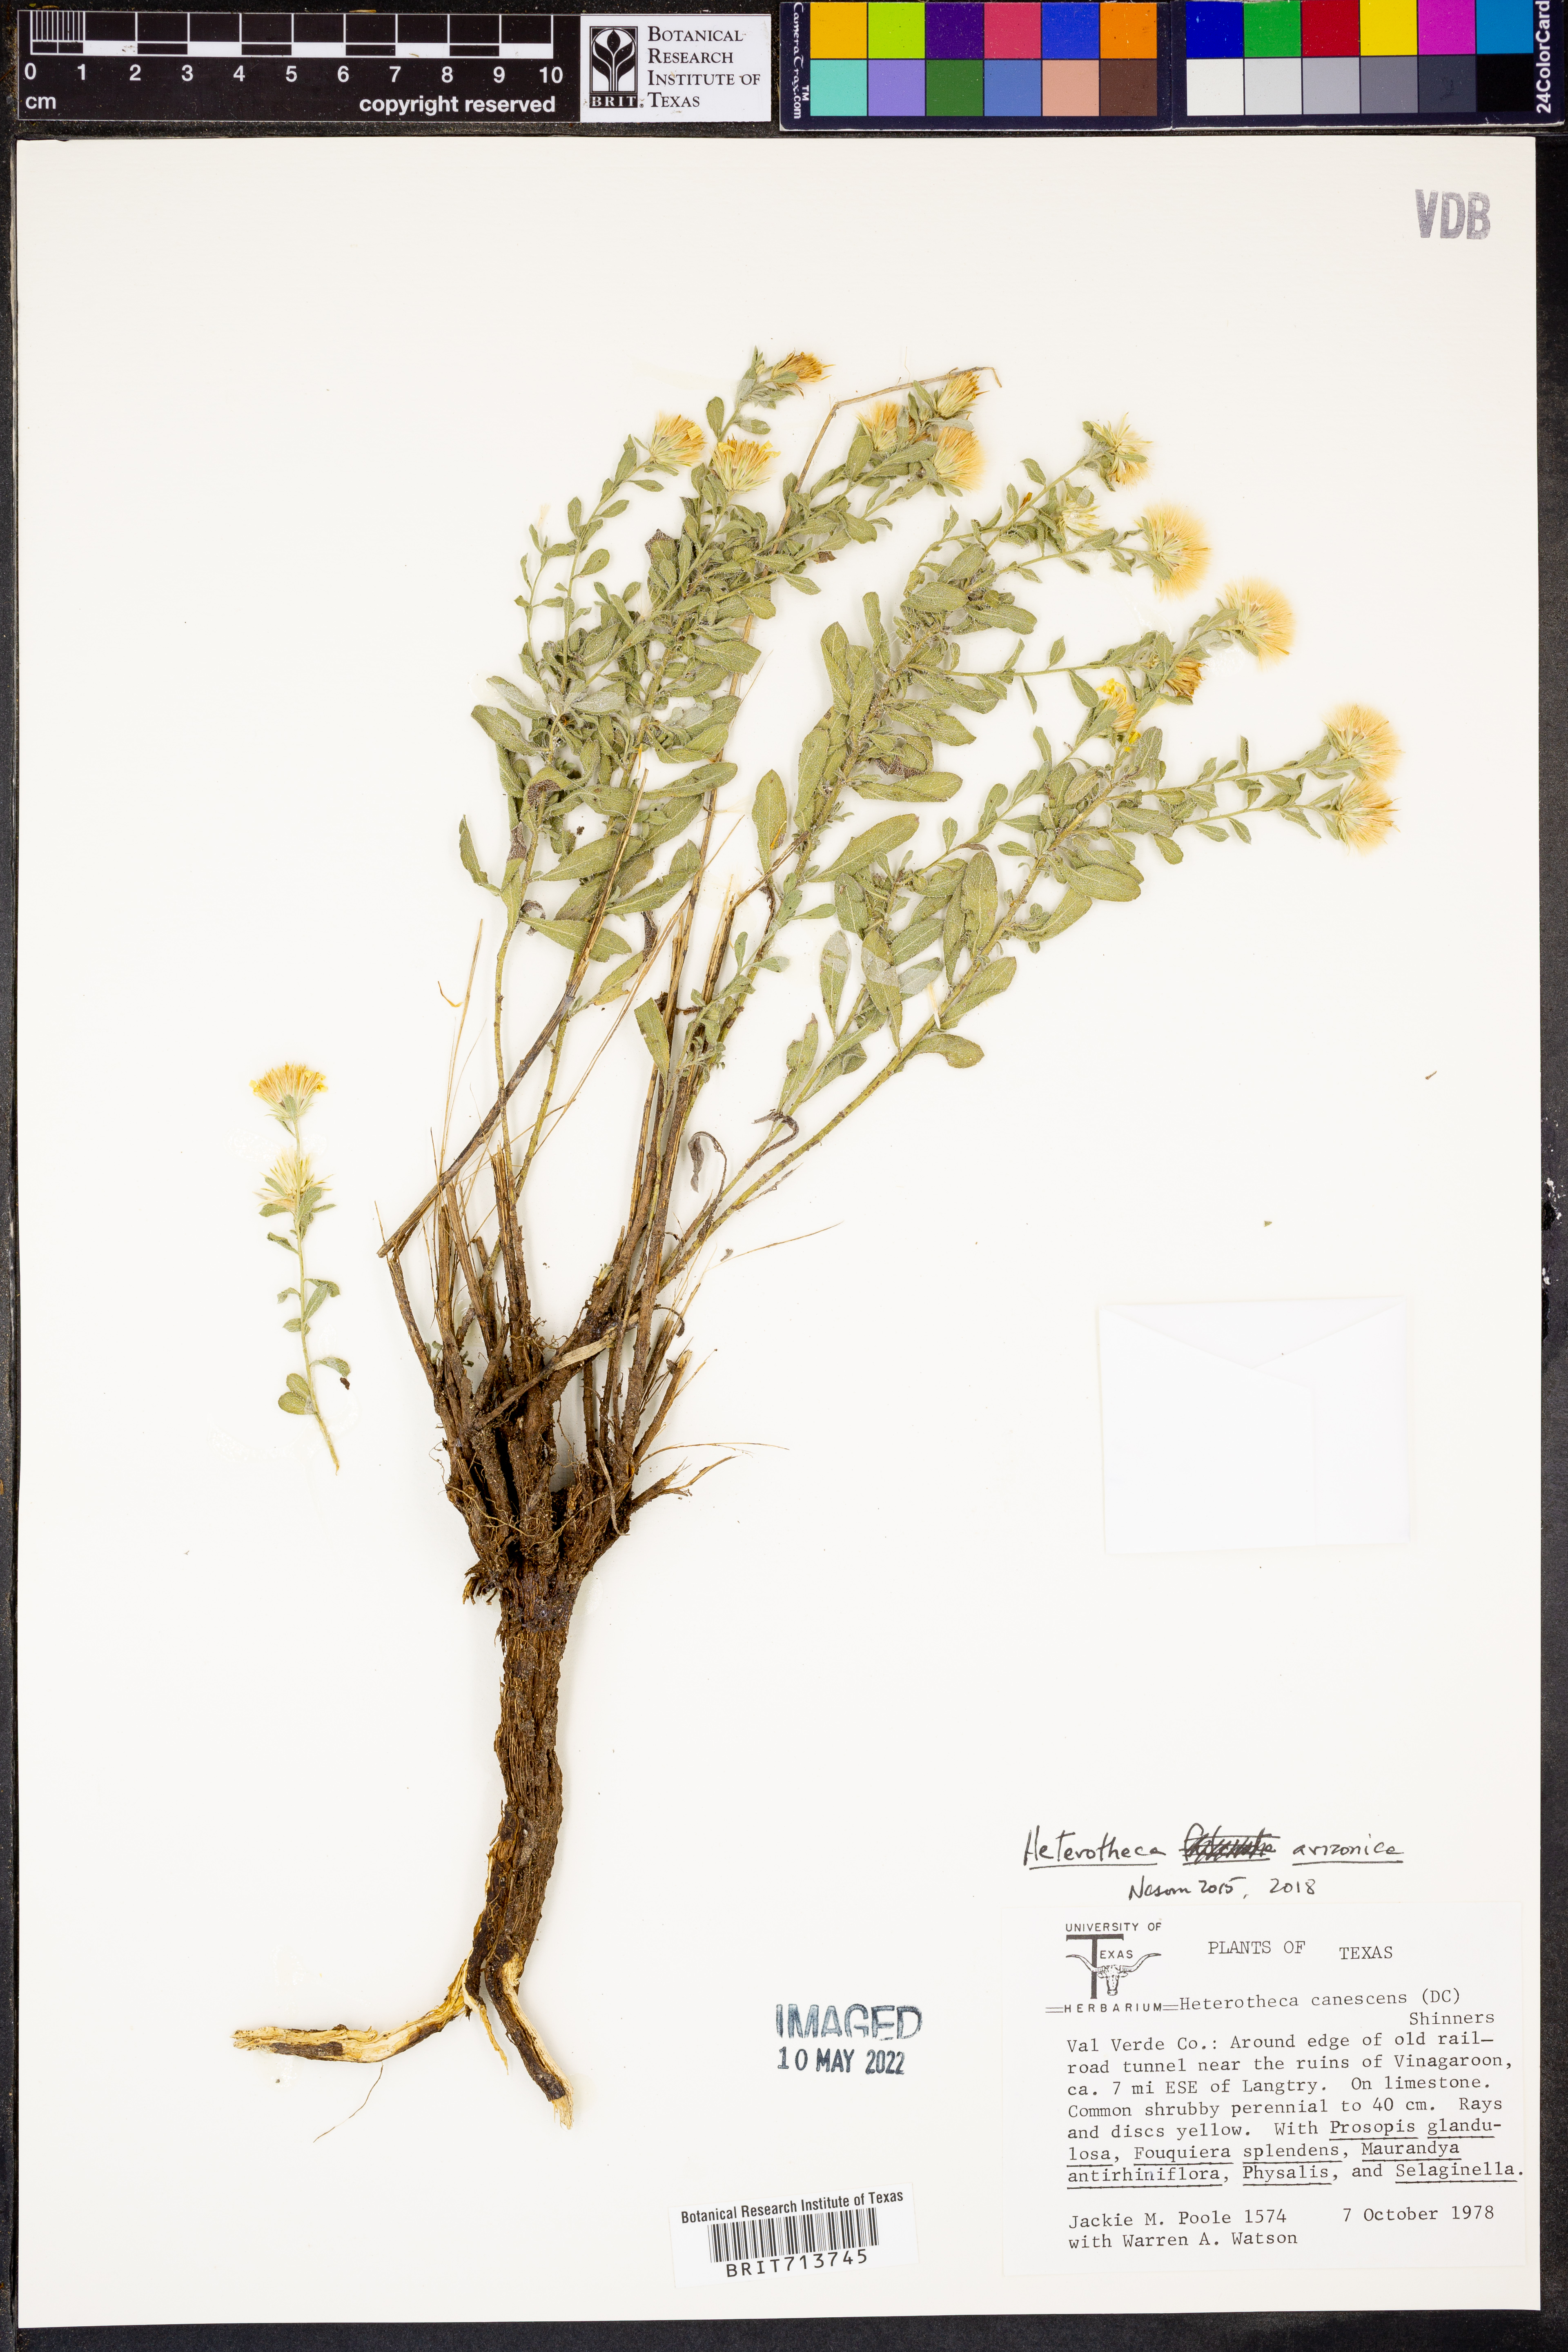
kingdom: Plantae
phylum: Tracheophyta
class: Magnoliopsida
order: Asterales
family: Asteraceae
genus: Heterotheca
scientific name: Heterotheca arizonica
